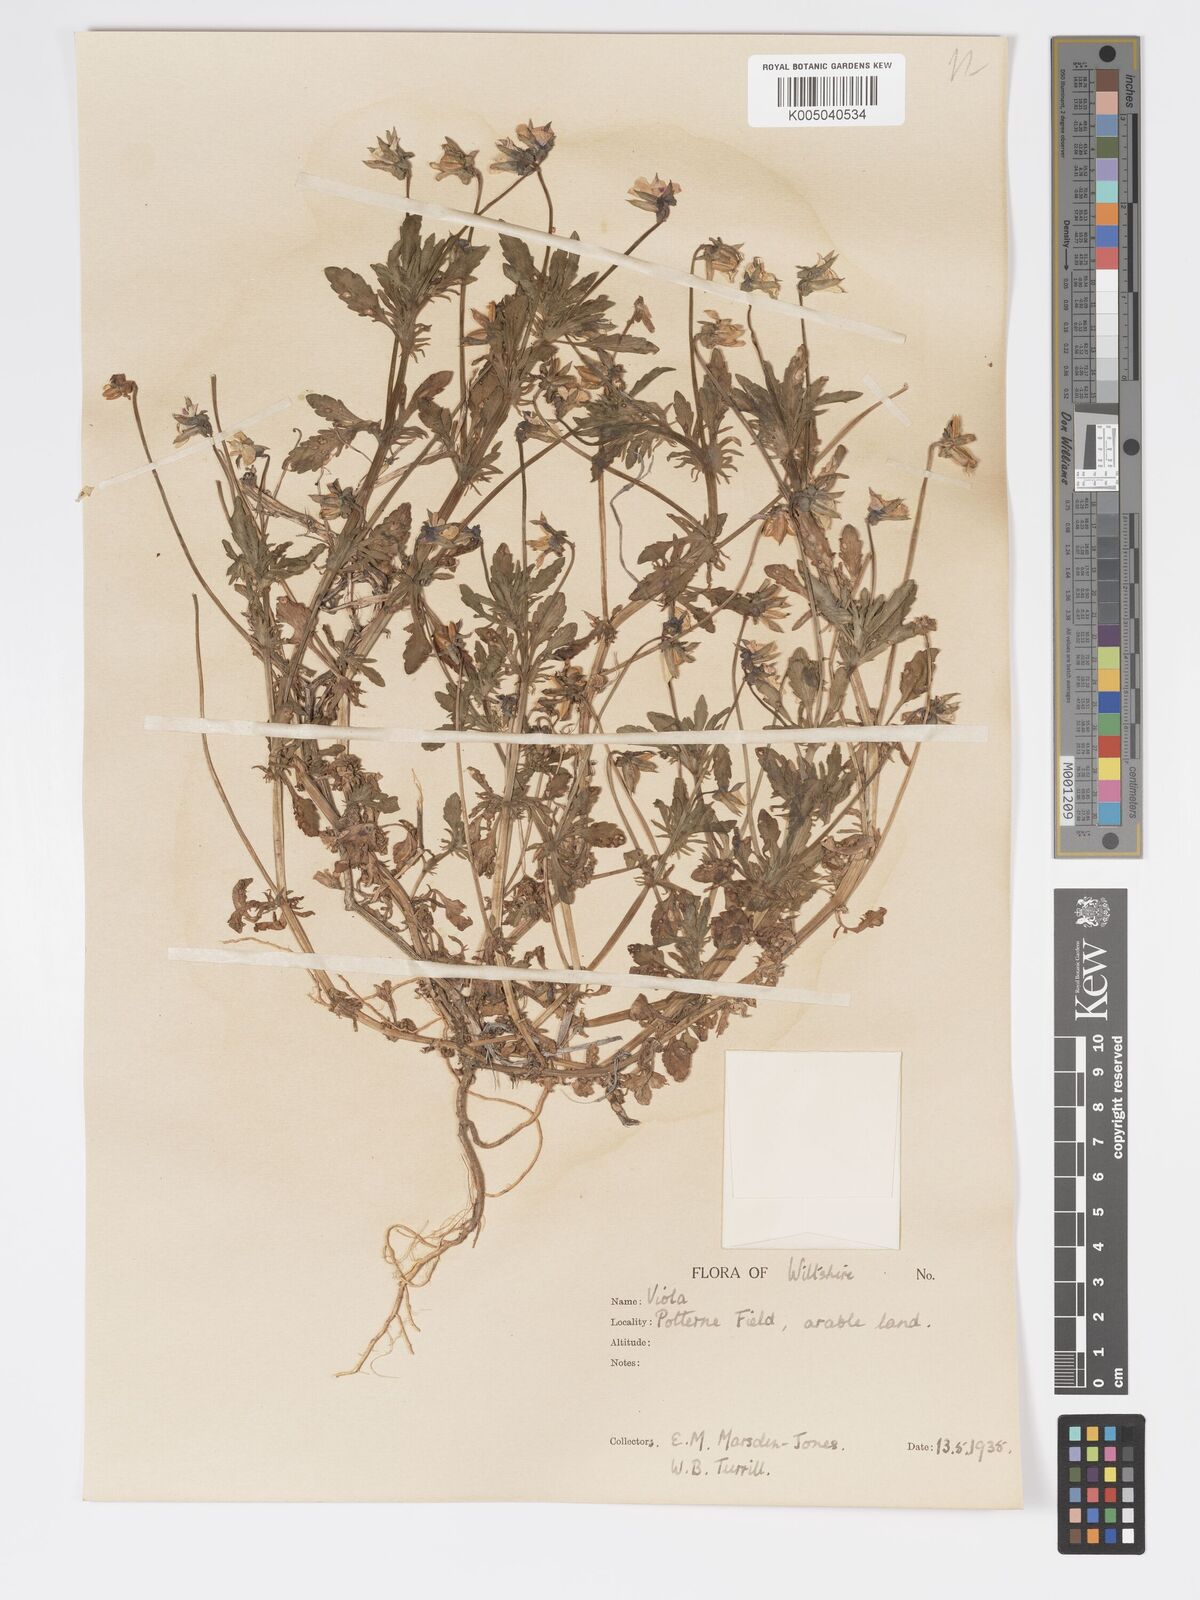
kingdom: Plantae
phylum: Tracheophyta
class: Magnoliopsida
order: Malpighiales
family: Violaceae
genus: Viola
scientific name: Viola
